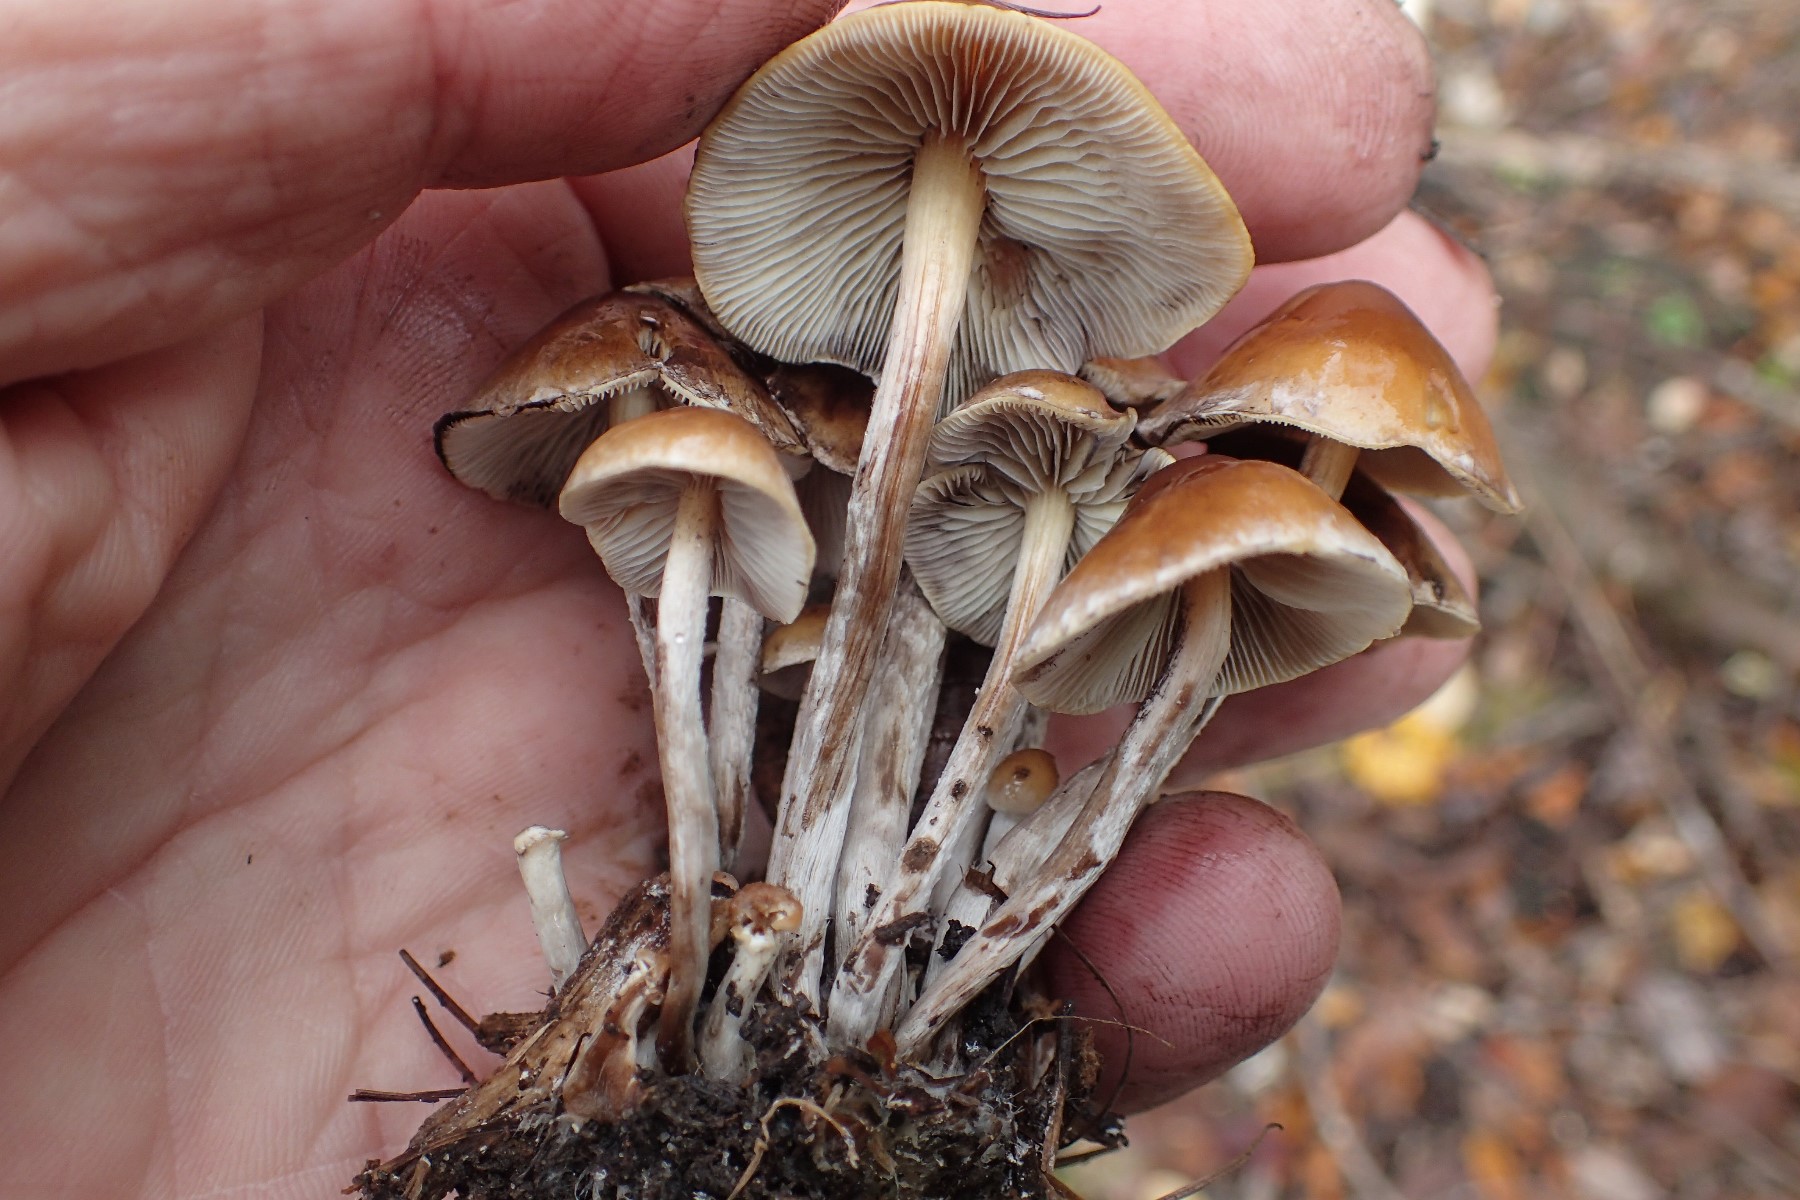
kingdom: Fungi
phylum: Basidiomycota
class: Agaricomycetes
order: Agaricales
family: Strophariaceae
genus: Hypholoma
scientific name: Hypholoma marginatum
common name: enlig svovlhat
